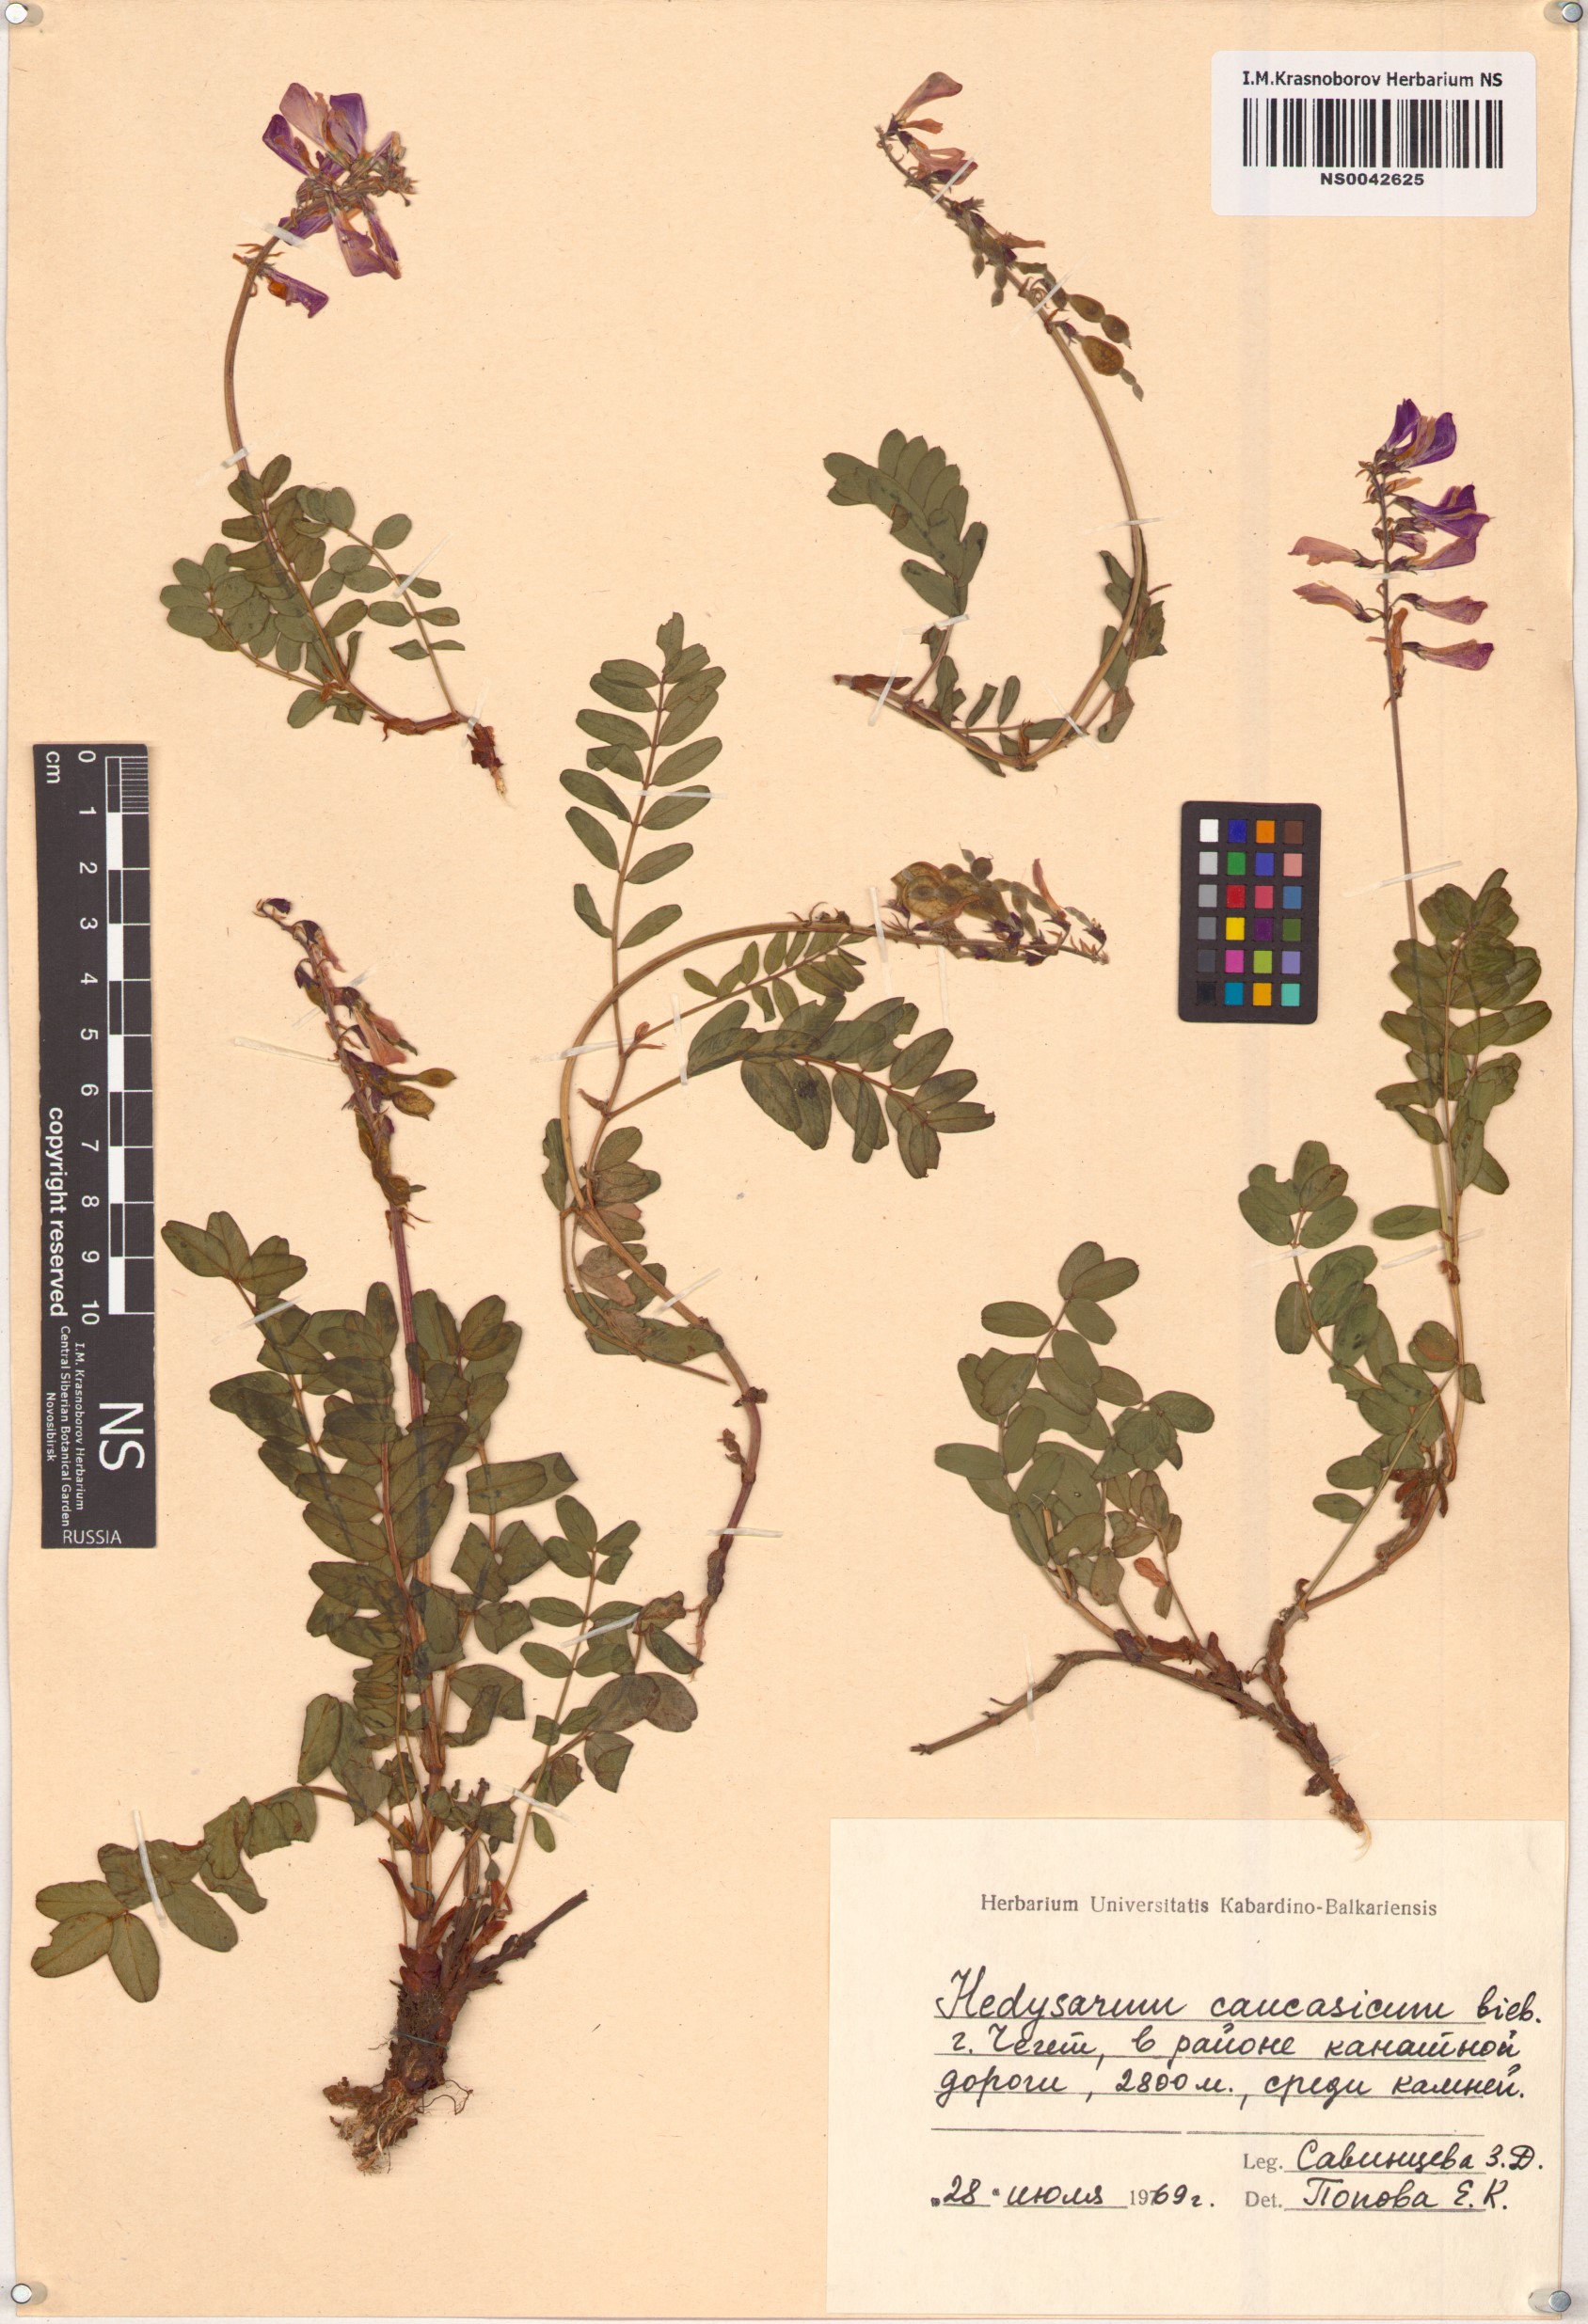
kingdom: Plantae
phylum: Tracheophyta
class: Magnoliopsida
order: Fabales
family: Fabaceae
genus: Hedysarum
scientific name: Hedysarum caucasicum
